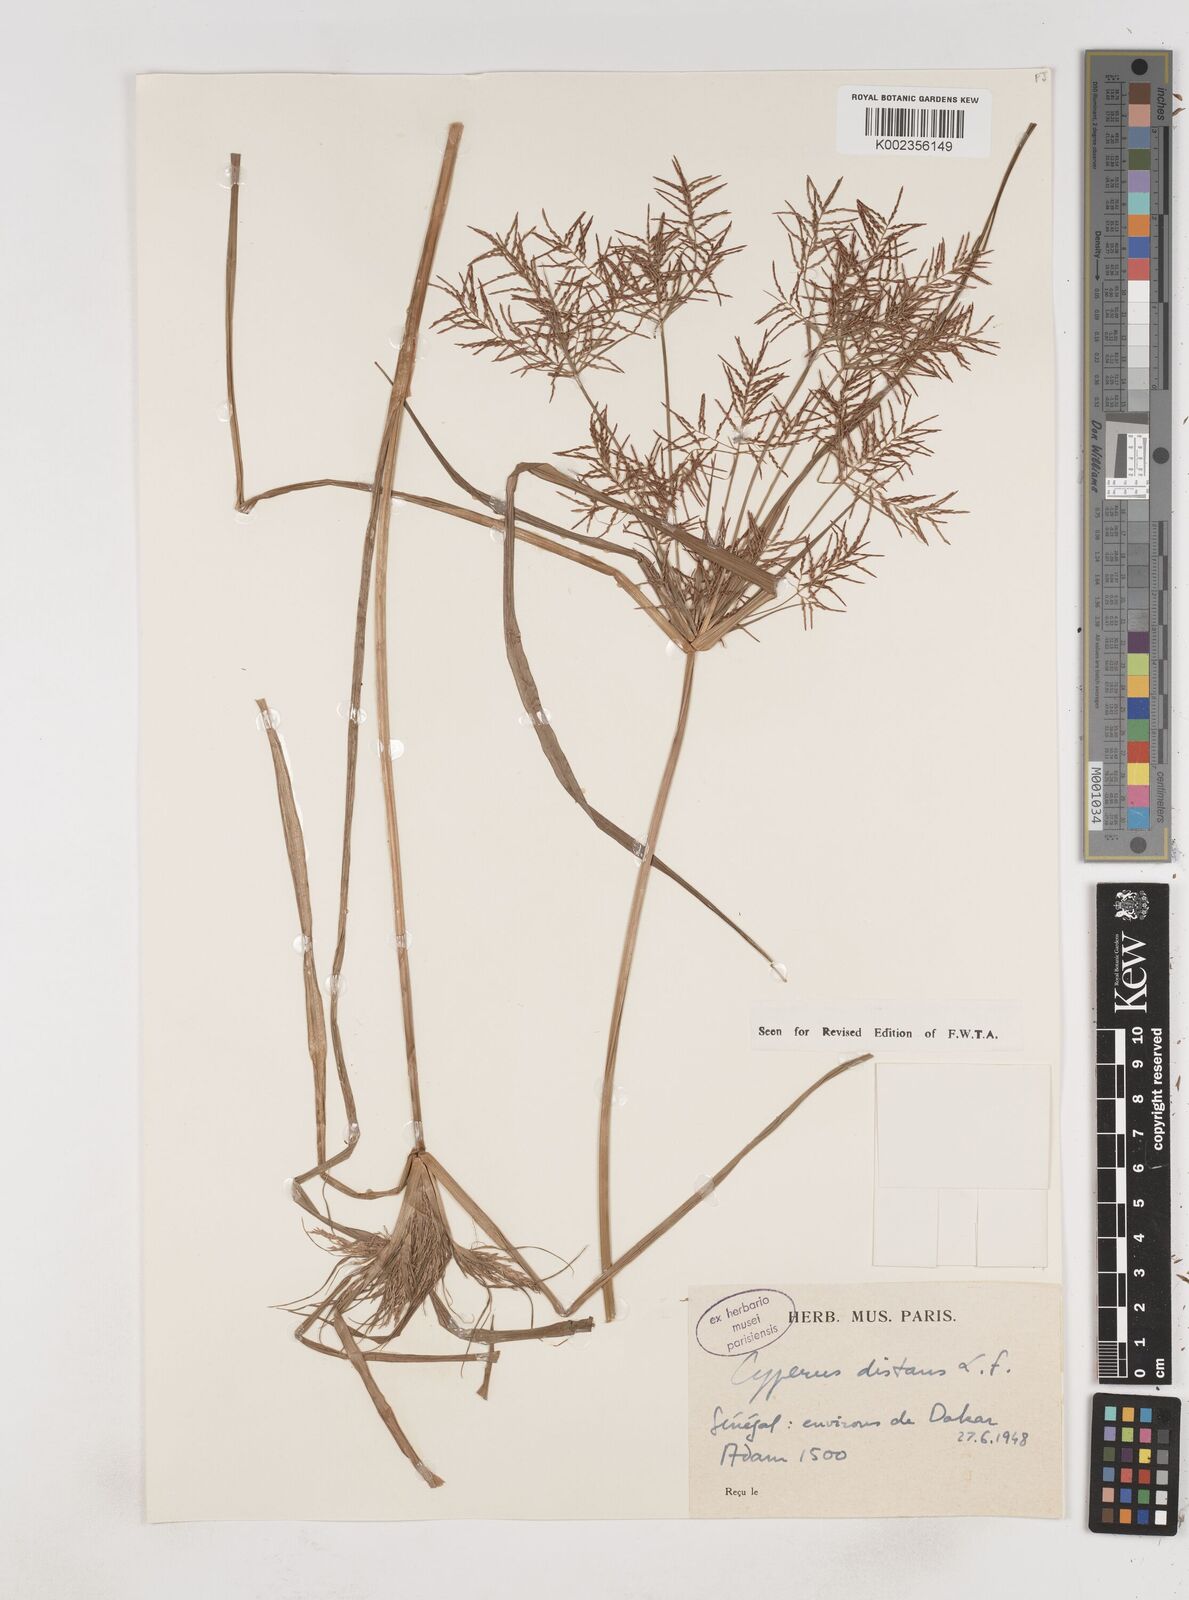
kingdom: Plantae
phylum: Tracheophyta
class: Liliopsida
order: Poales
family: Cyperaceae
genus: Cyperus
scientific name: Cyperus distans
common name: Slender cyperus
